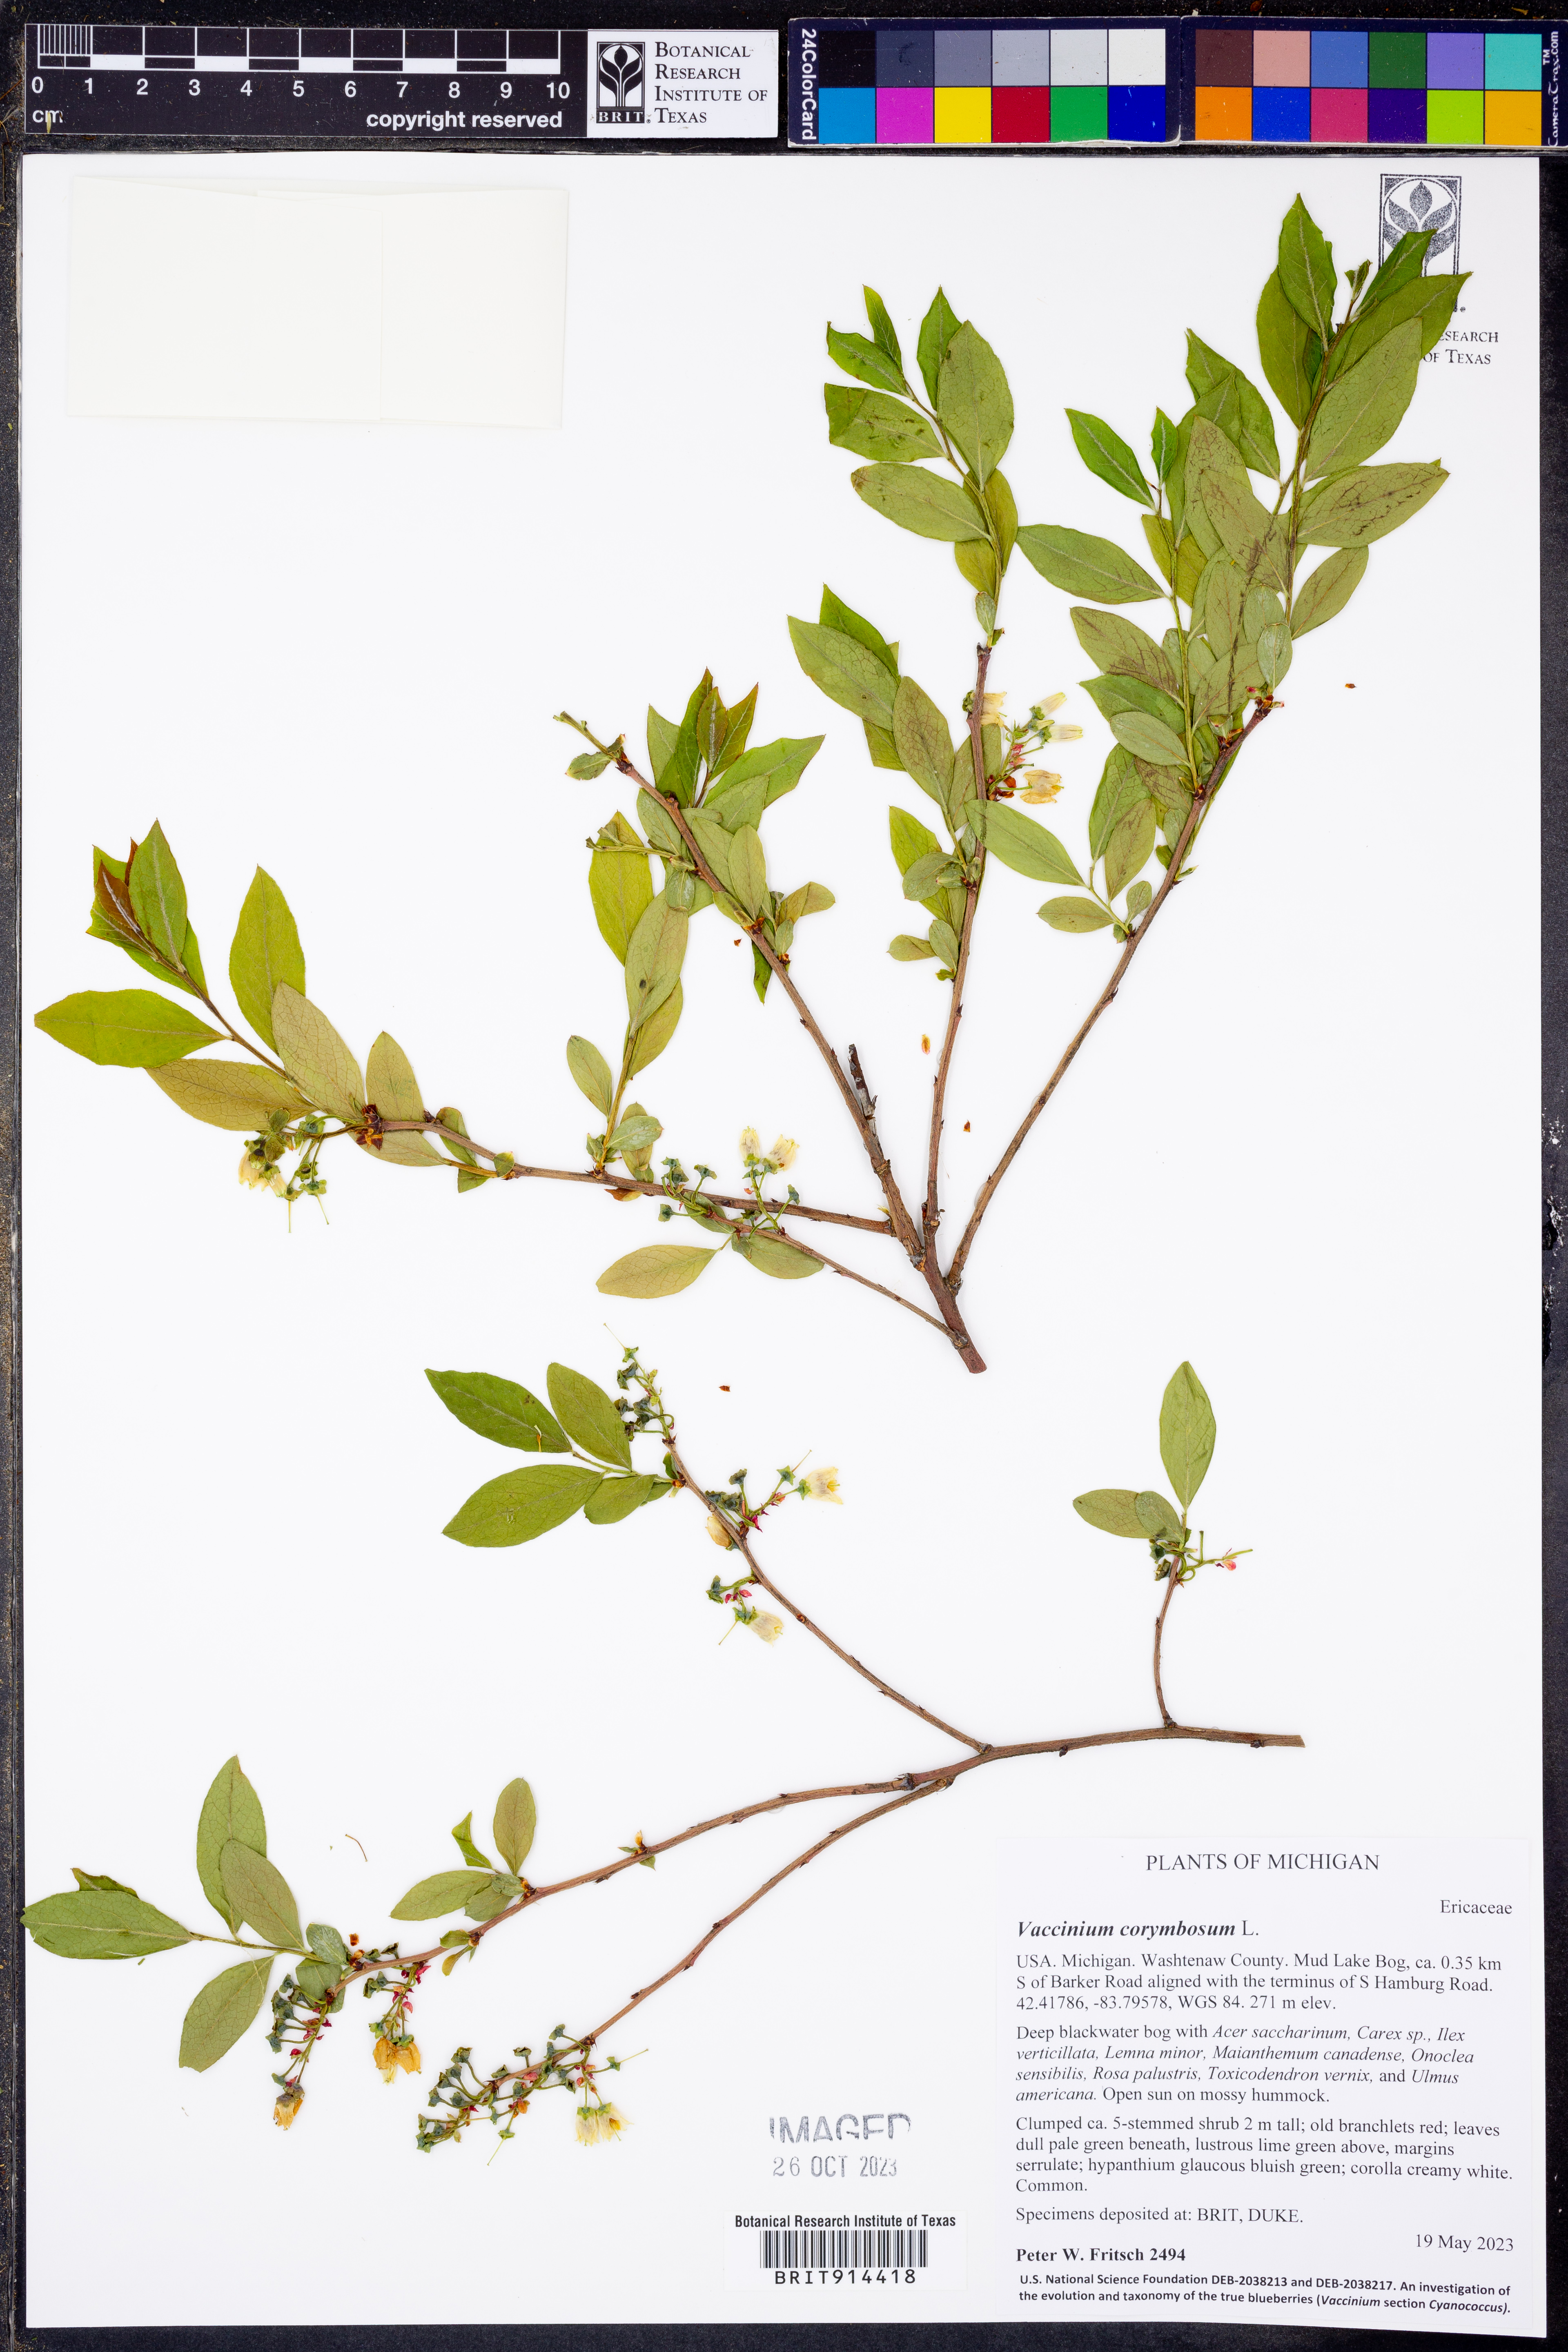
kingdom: Plantae
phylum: Tracheophyta
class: Magnoliopsida
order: Ericales
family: Ericaceae
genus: Vaccinium
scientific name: Vaccinium corymbosum
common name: Blueberry
